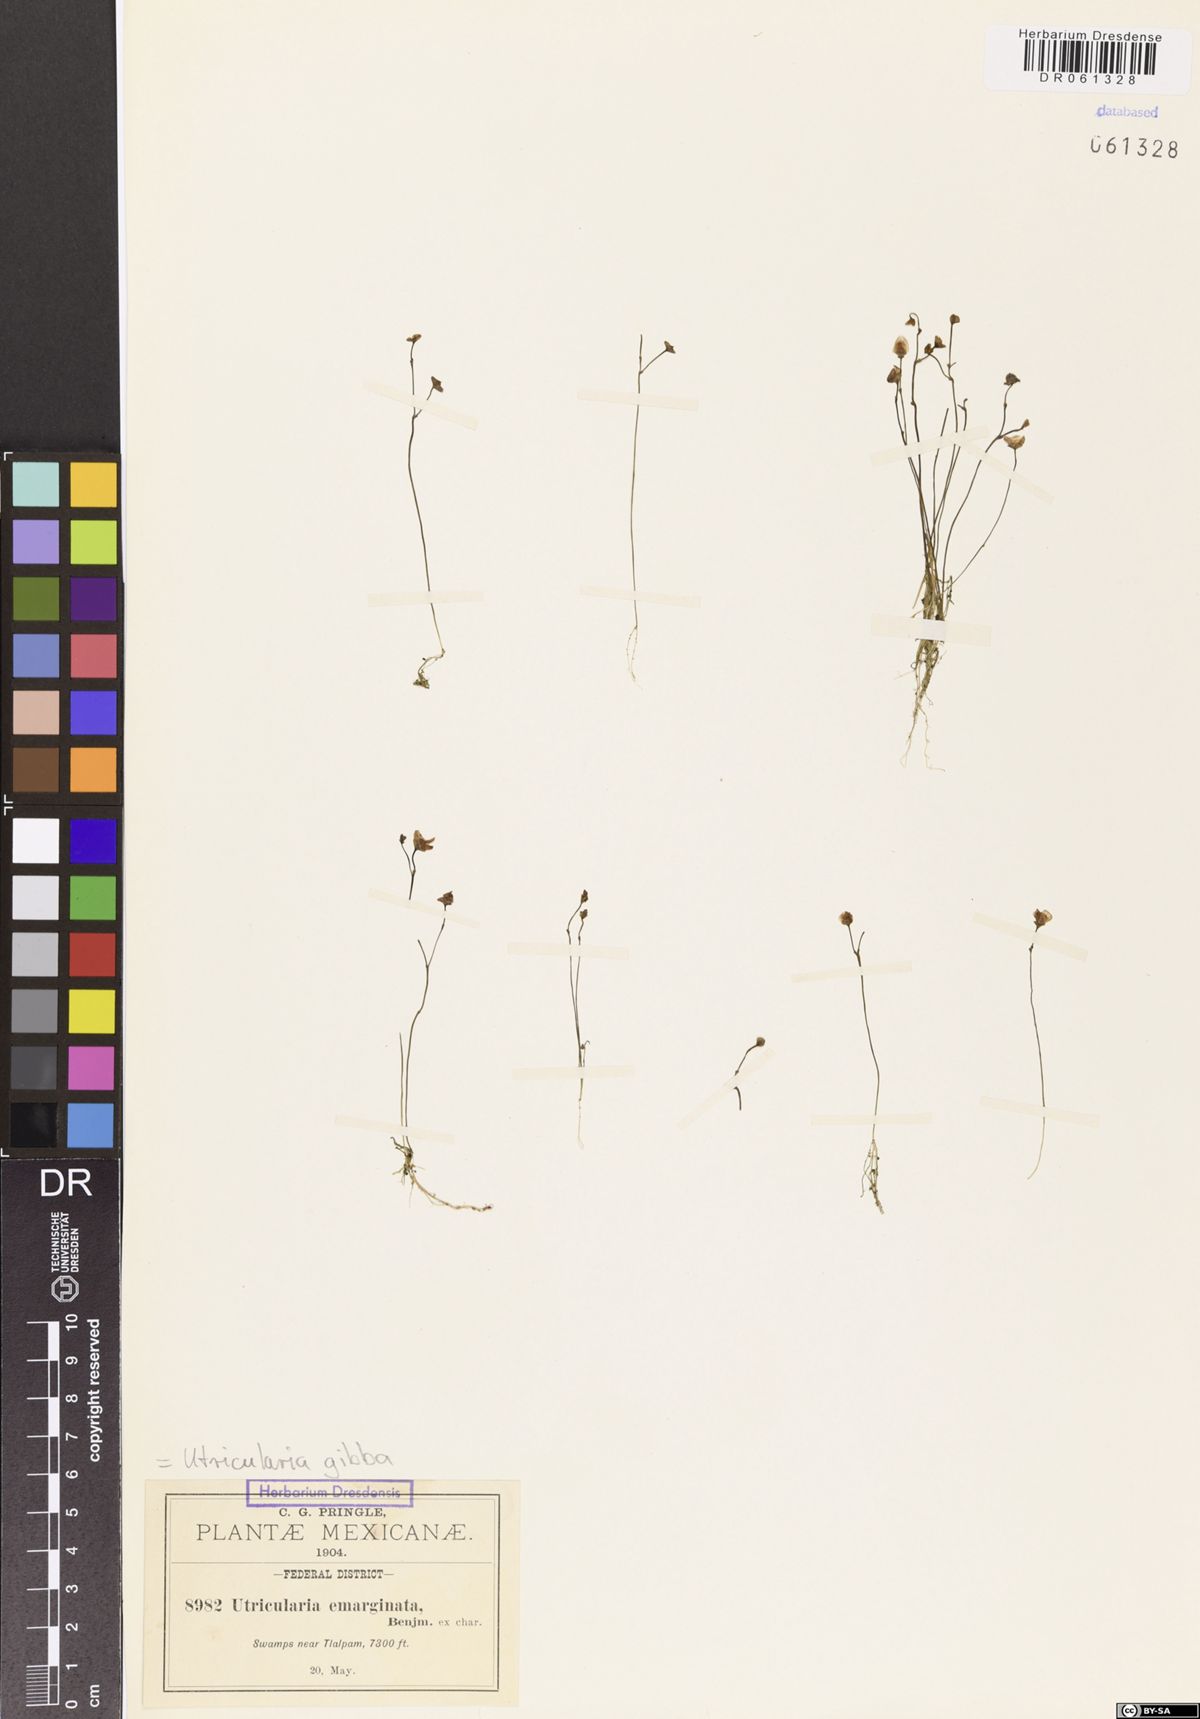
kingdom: Plantae
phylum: Tracheophyta
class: Magnoliopsida
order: Lamiales
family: Lentibulariaceae
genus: Utricularia
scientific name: Utricularia gibba
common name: Humped bladderwort
